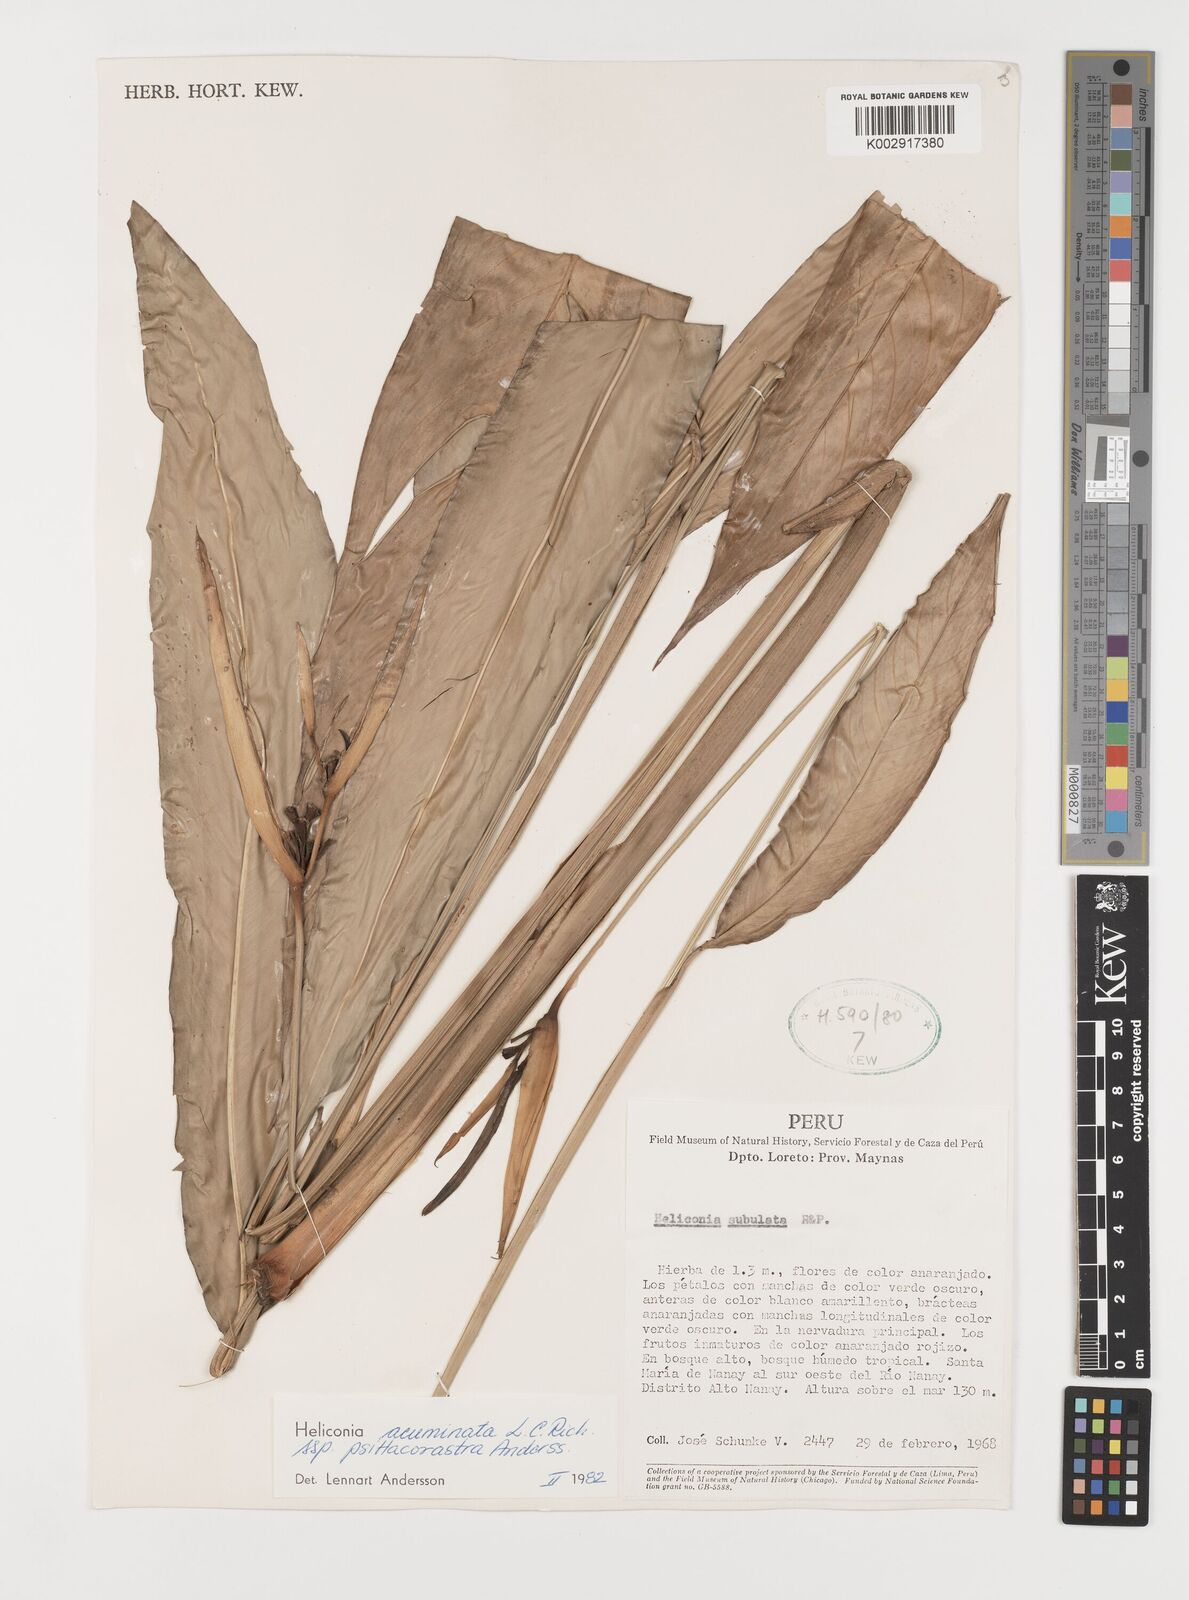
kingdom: Plantae
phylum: Tracheophyta
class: Liliopsida
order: Zingiberales
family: Heliconiaceae
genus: Heliconia
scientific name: Heliconia acuminata
